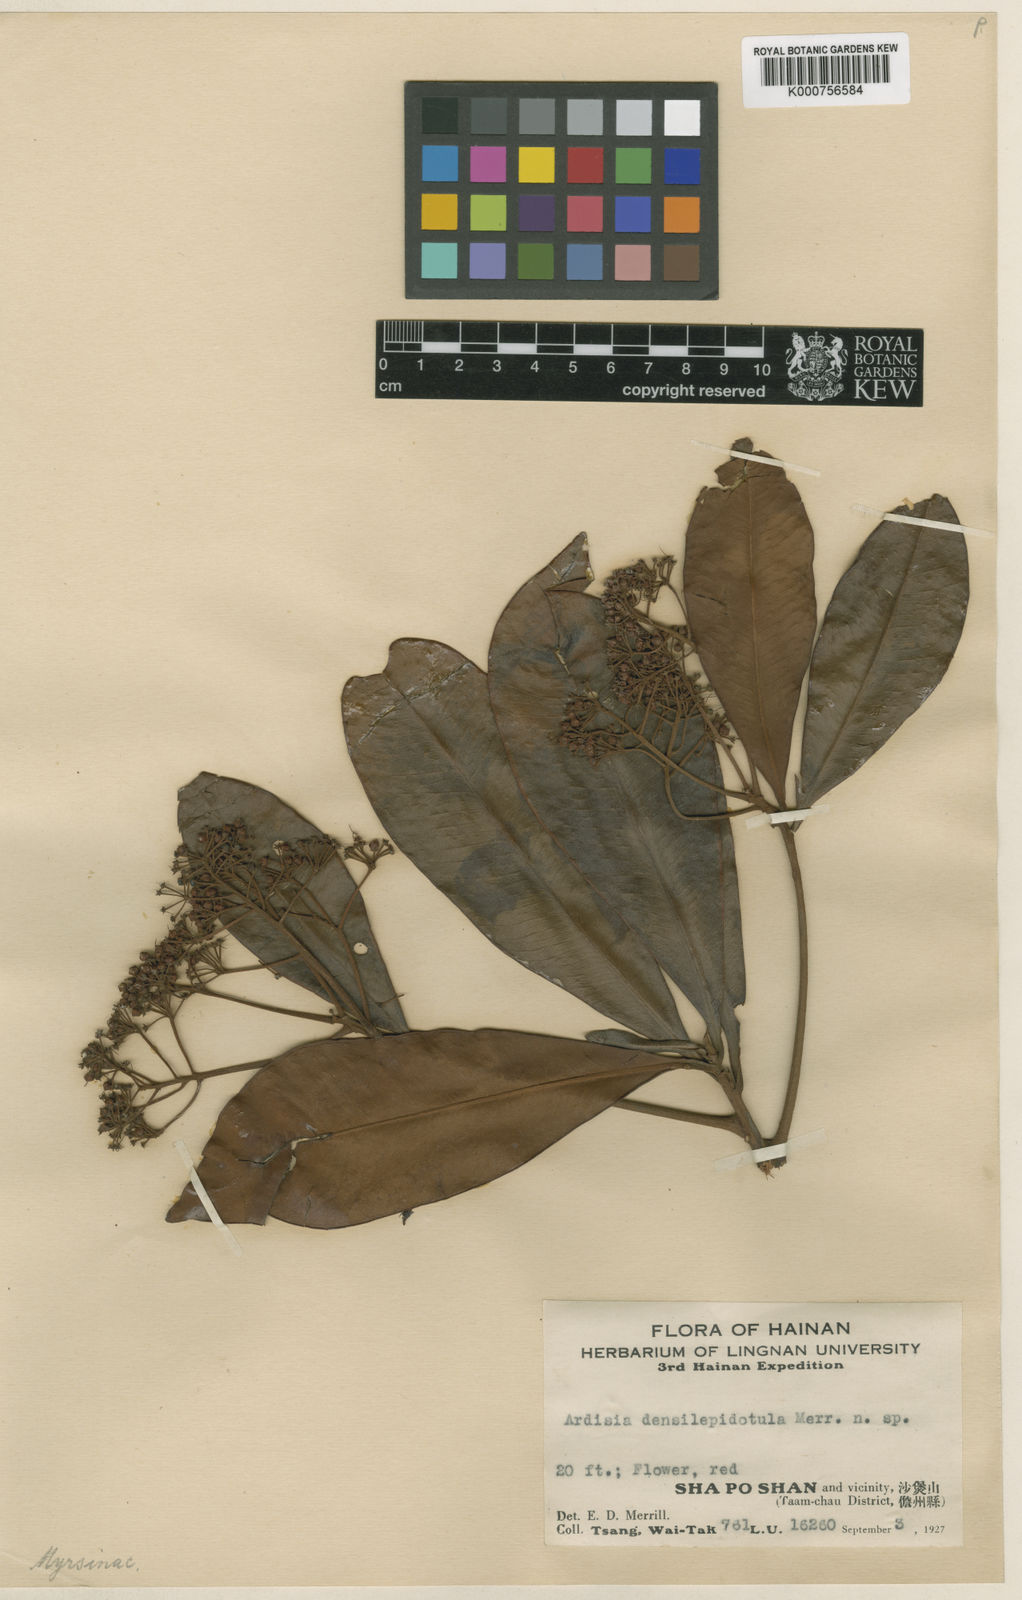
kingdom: Plantae
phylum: Tracheophyta
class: Magnoliopsida
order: Ericales
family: Primulaceae
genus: Ardisia
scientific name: Ardisia densilepidotula
